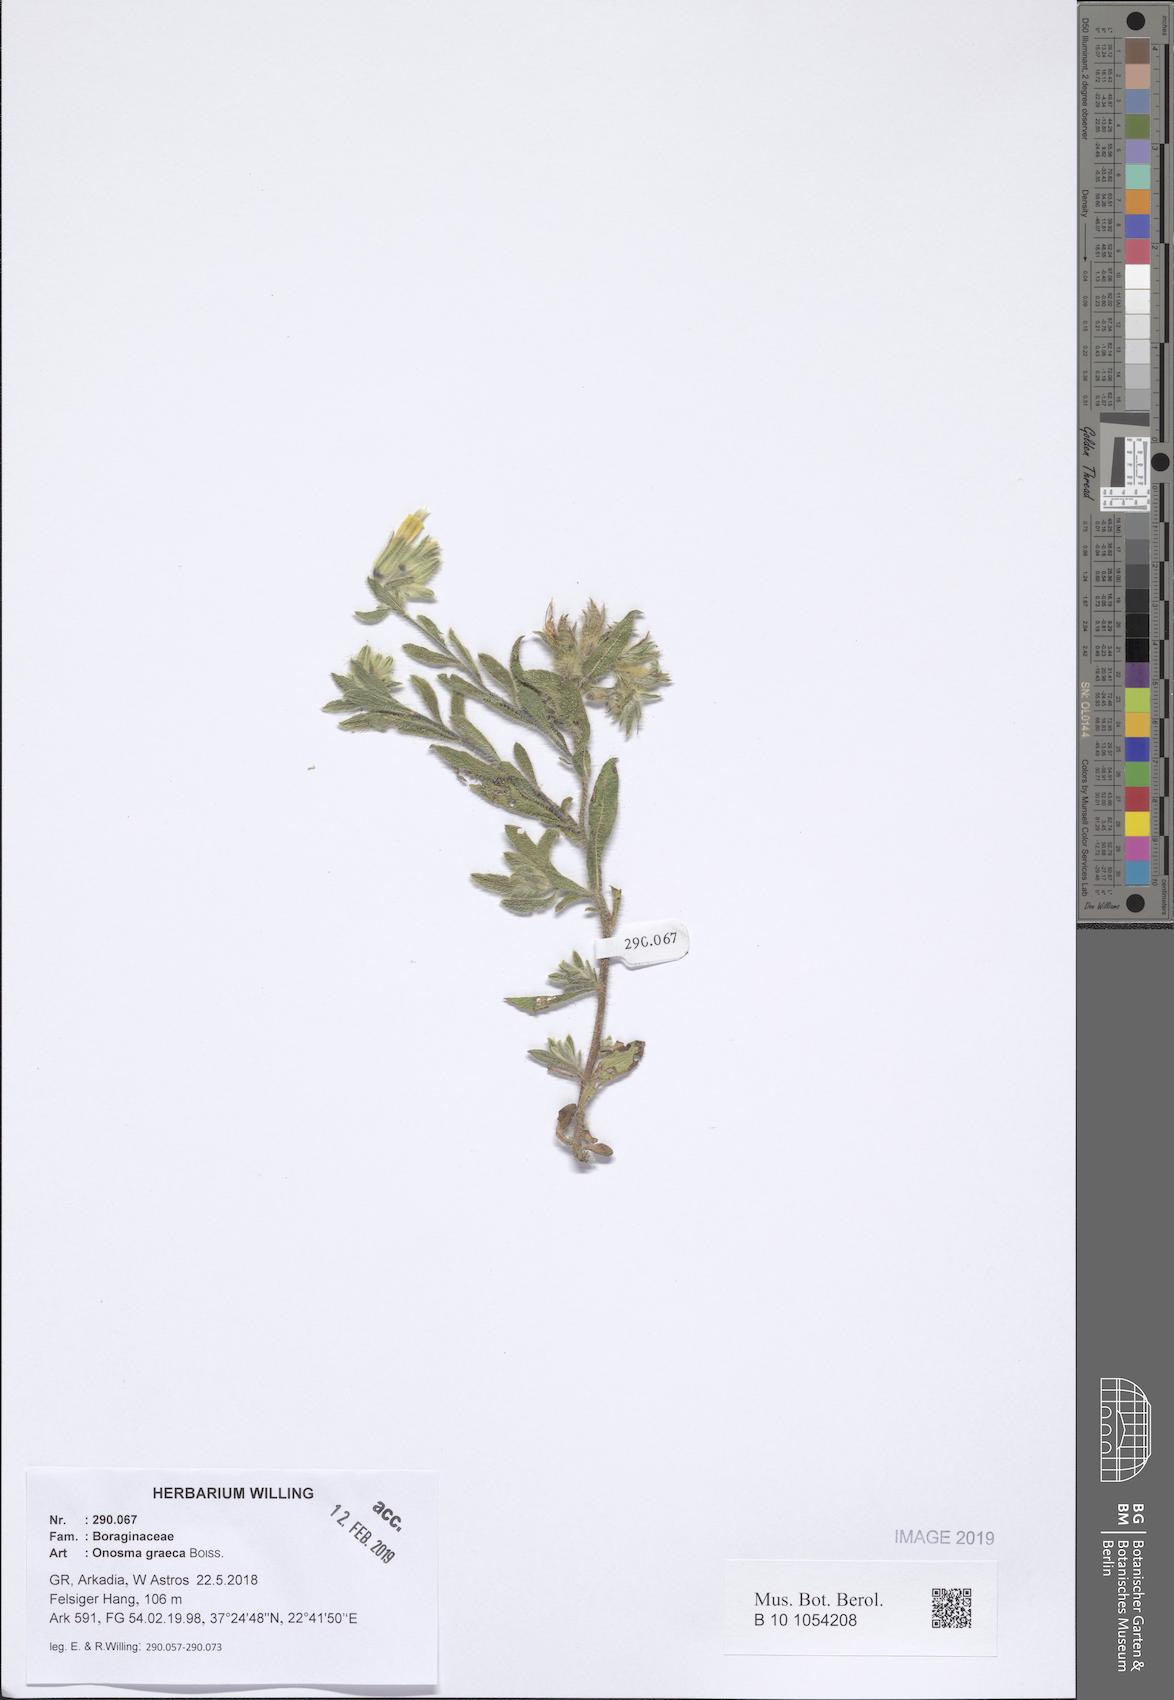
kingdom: Plantae
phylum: Tracheophyta
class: Magnoliopsida
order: Boraginales
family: Boraginaceae
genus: Onosma
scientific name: Onosma graeca
